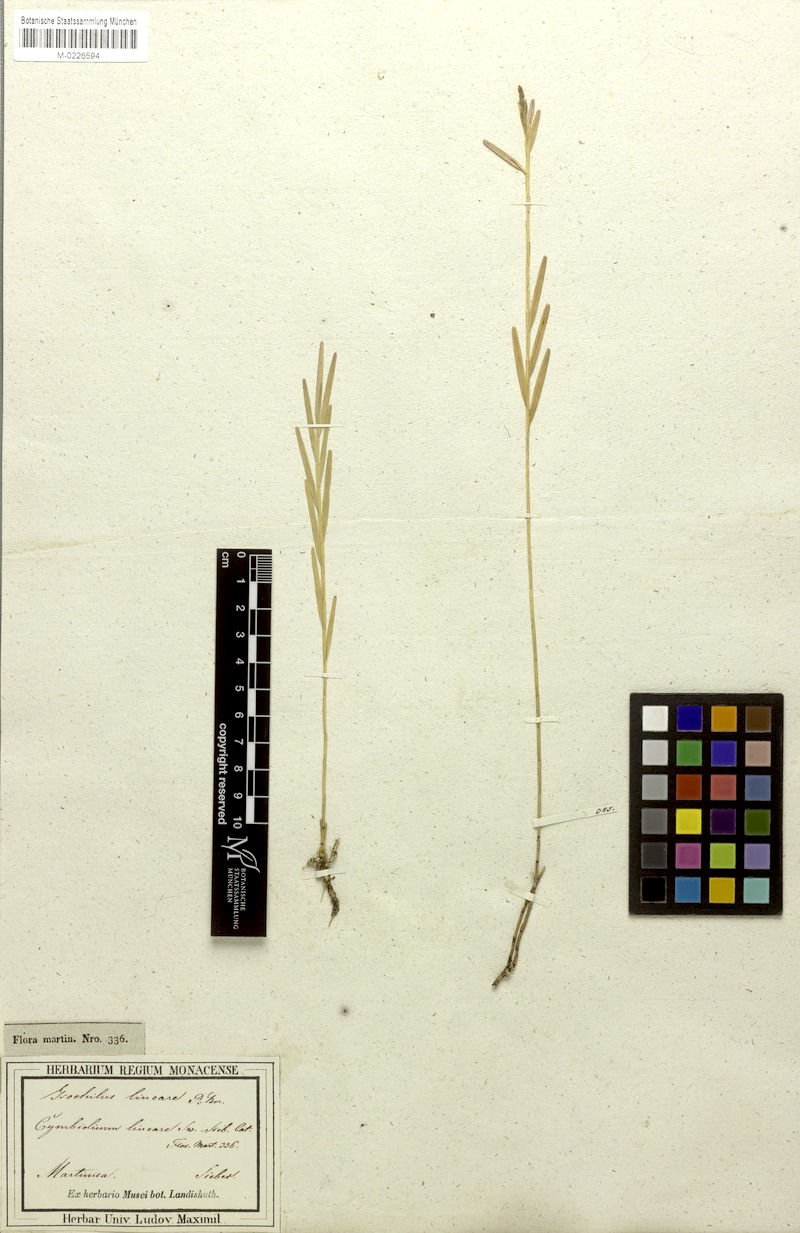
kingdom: Plantae
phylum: Tracheophyta
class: Liliopsida
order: Asparagales
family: Orchidaceae
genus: Isochilus
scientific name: Isochilus linearis
